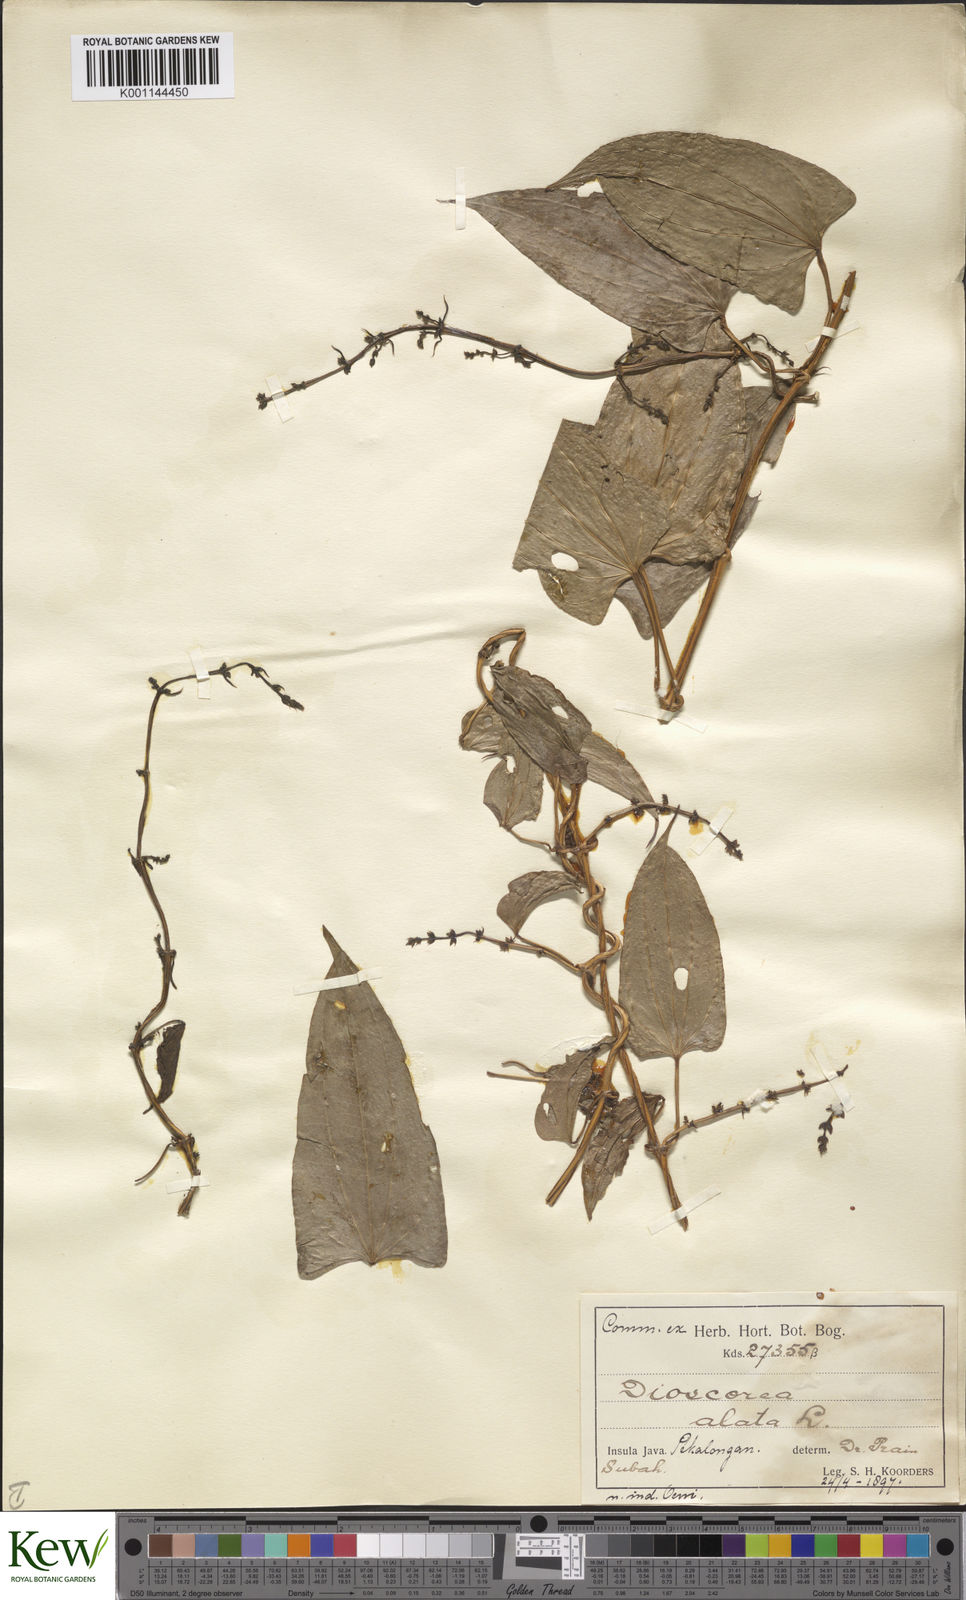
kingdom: Plantae
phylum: Tracheophyta
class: Liliopsida
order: Dioscoreales
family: Dioscoreaceae
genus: Dioscorea
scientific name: Dioscorea alata
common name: Water yam
